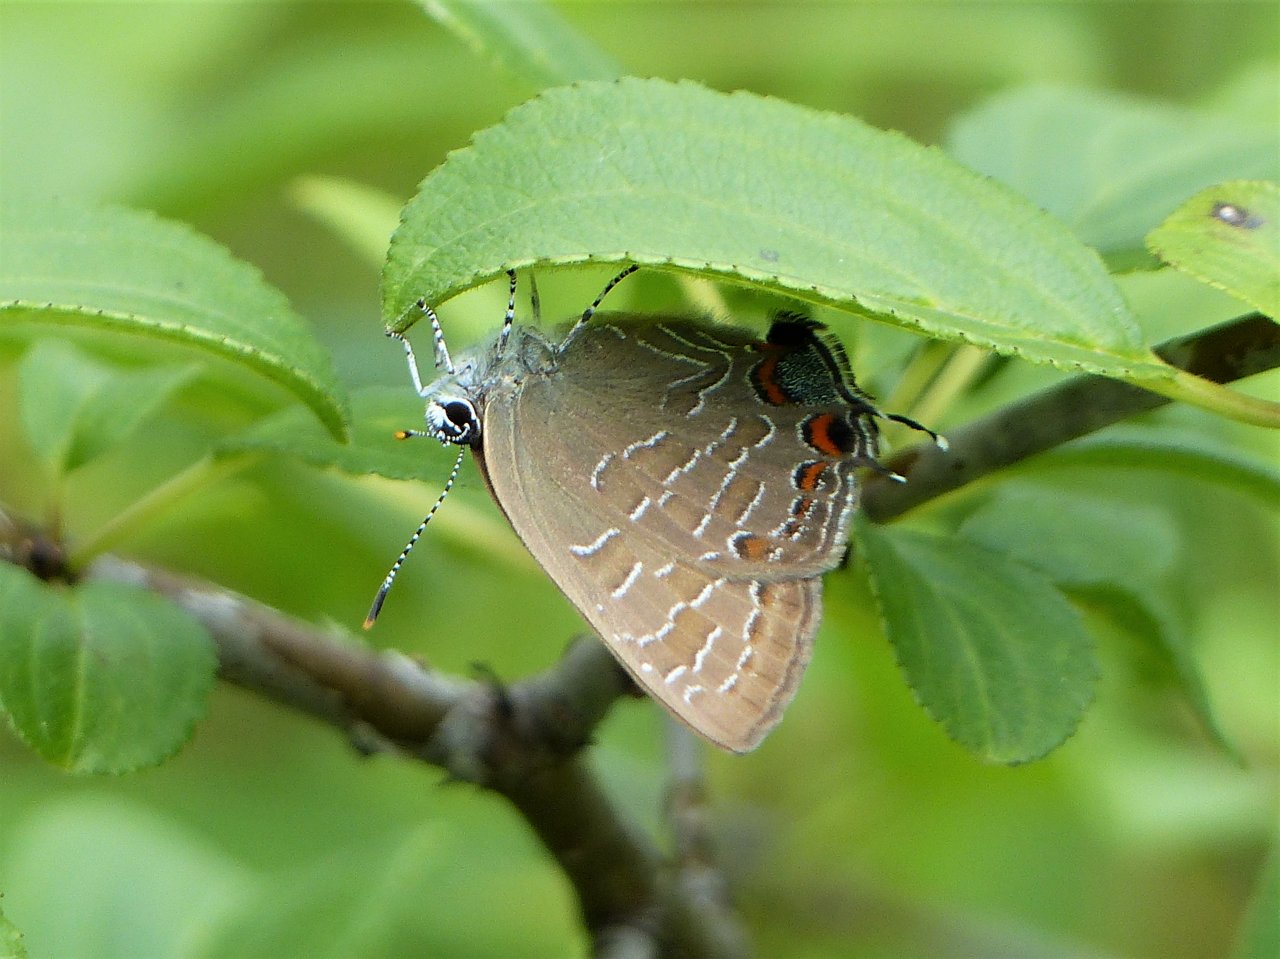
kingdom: Animalia
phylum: Arthropoda
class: Insecta
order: Lepidoptera
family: Lycaenidae
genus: Satyrium
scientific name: Satyrium liparops
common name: Striped Hairstreak
